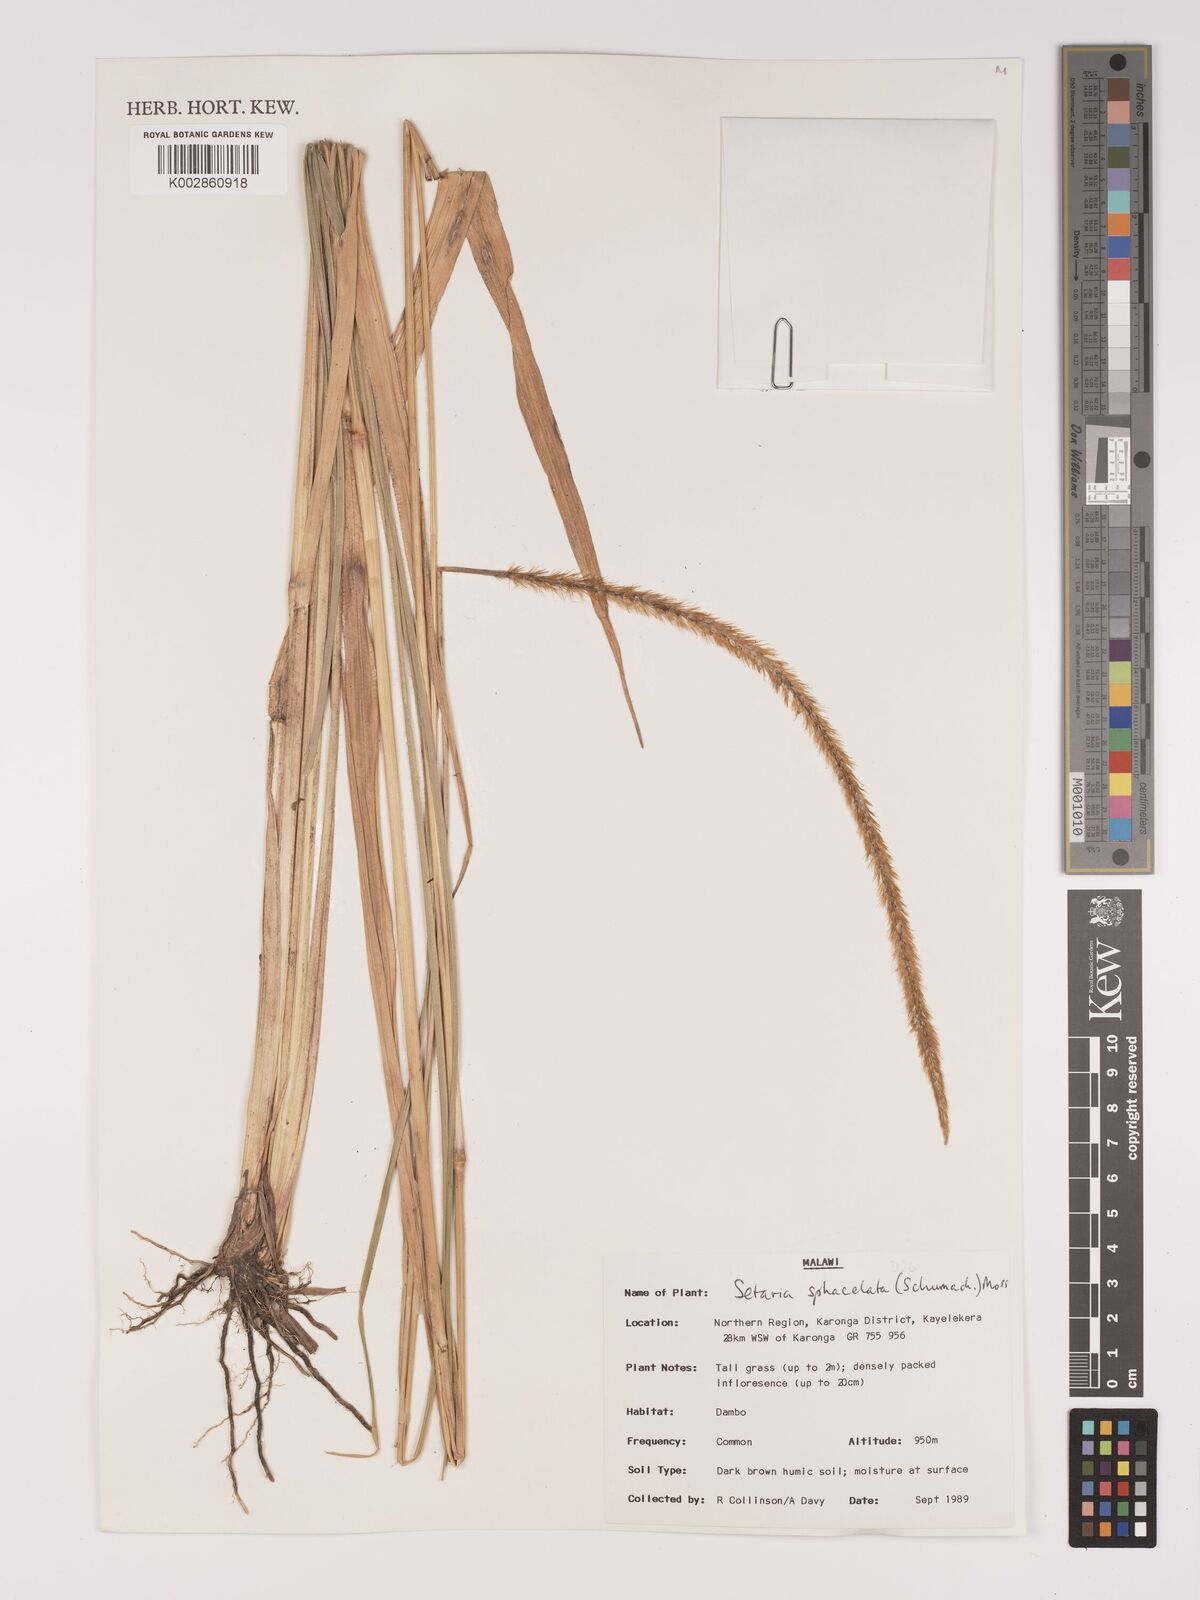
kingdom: Plantae
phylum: Tracheophyta
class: Liliopsida
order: Poales
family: Poaceae
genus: Setaria
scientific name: Setaria sphacelata
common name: African bristlegrass
